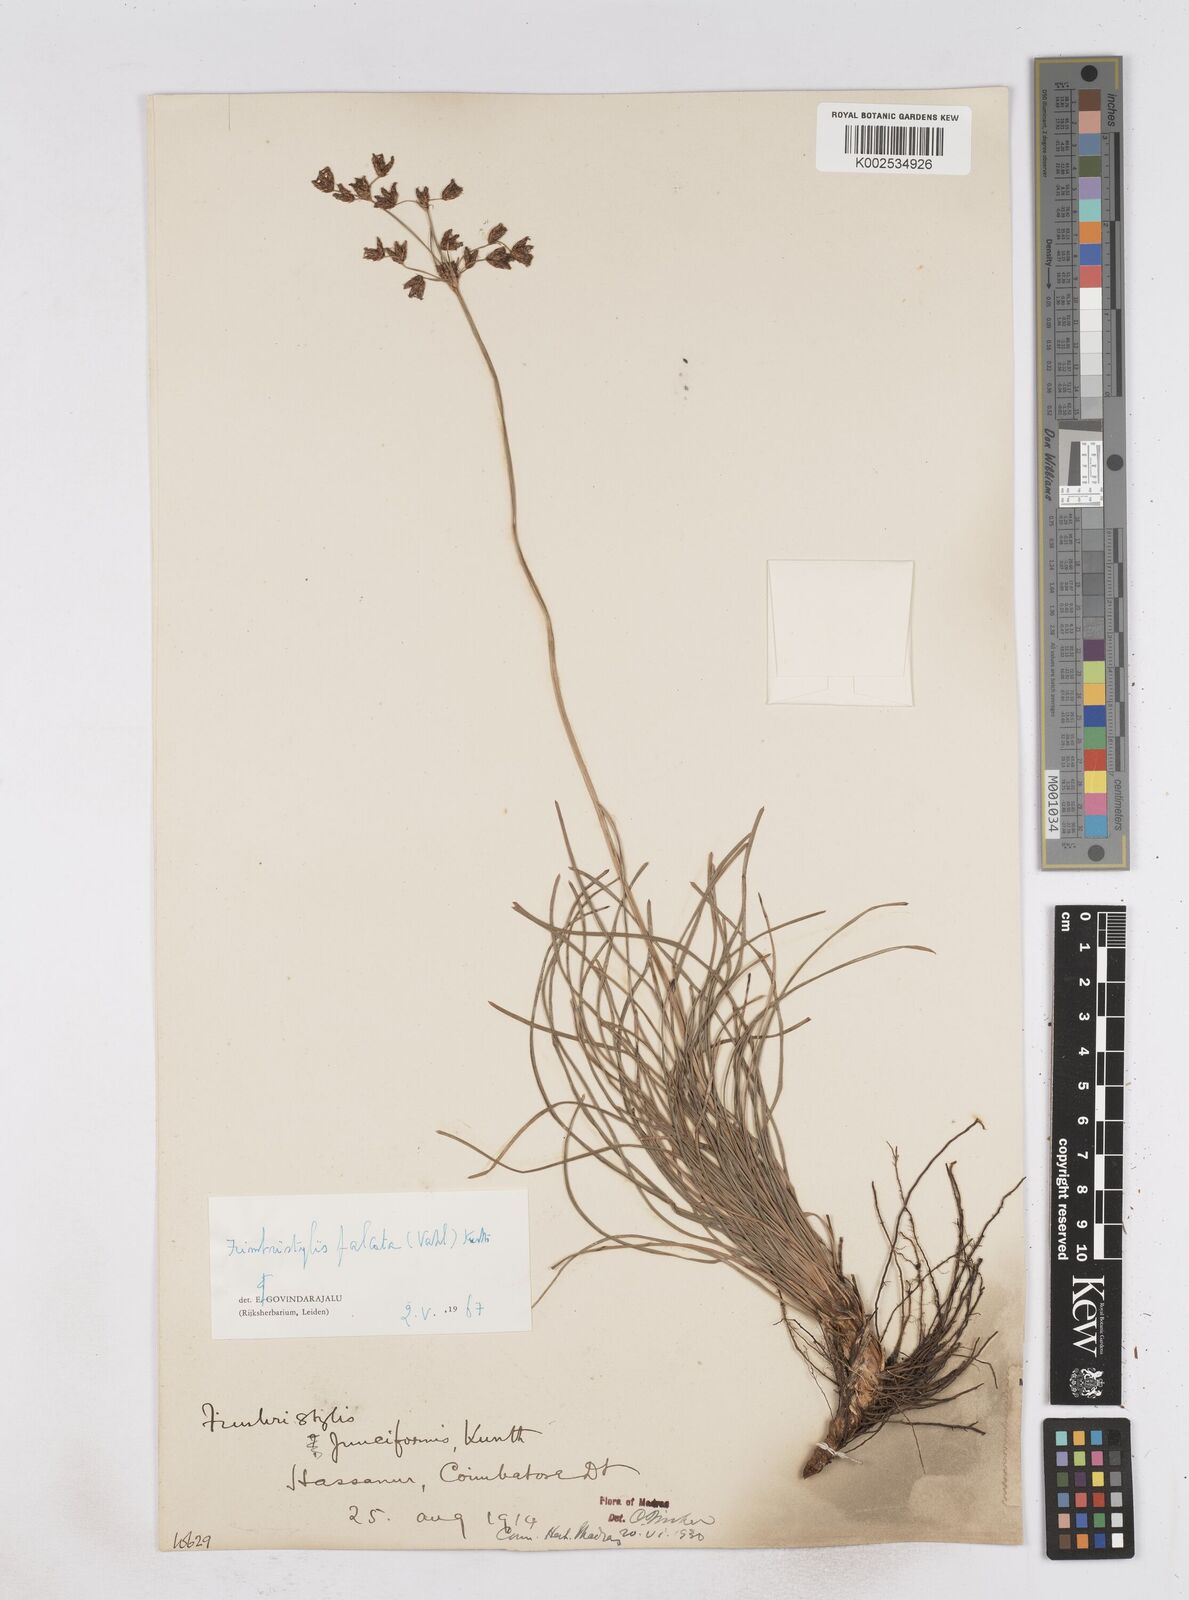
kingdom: Plantae
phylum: Tracheophyta
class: Liliopsida
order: Poales
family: Cyperaceae
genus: Fimbristylis
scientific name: Fimbristylis falcata
